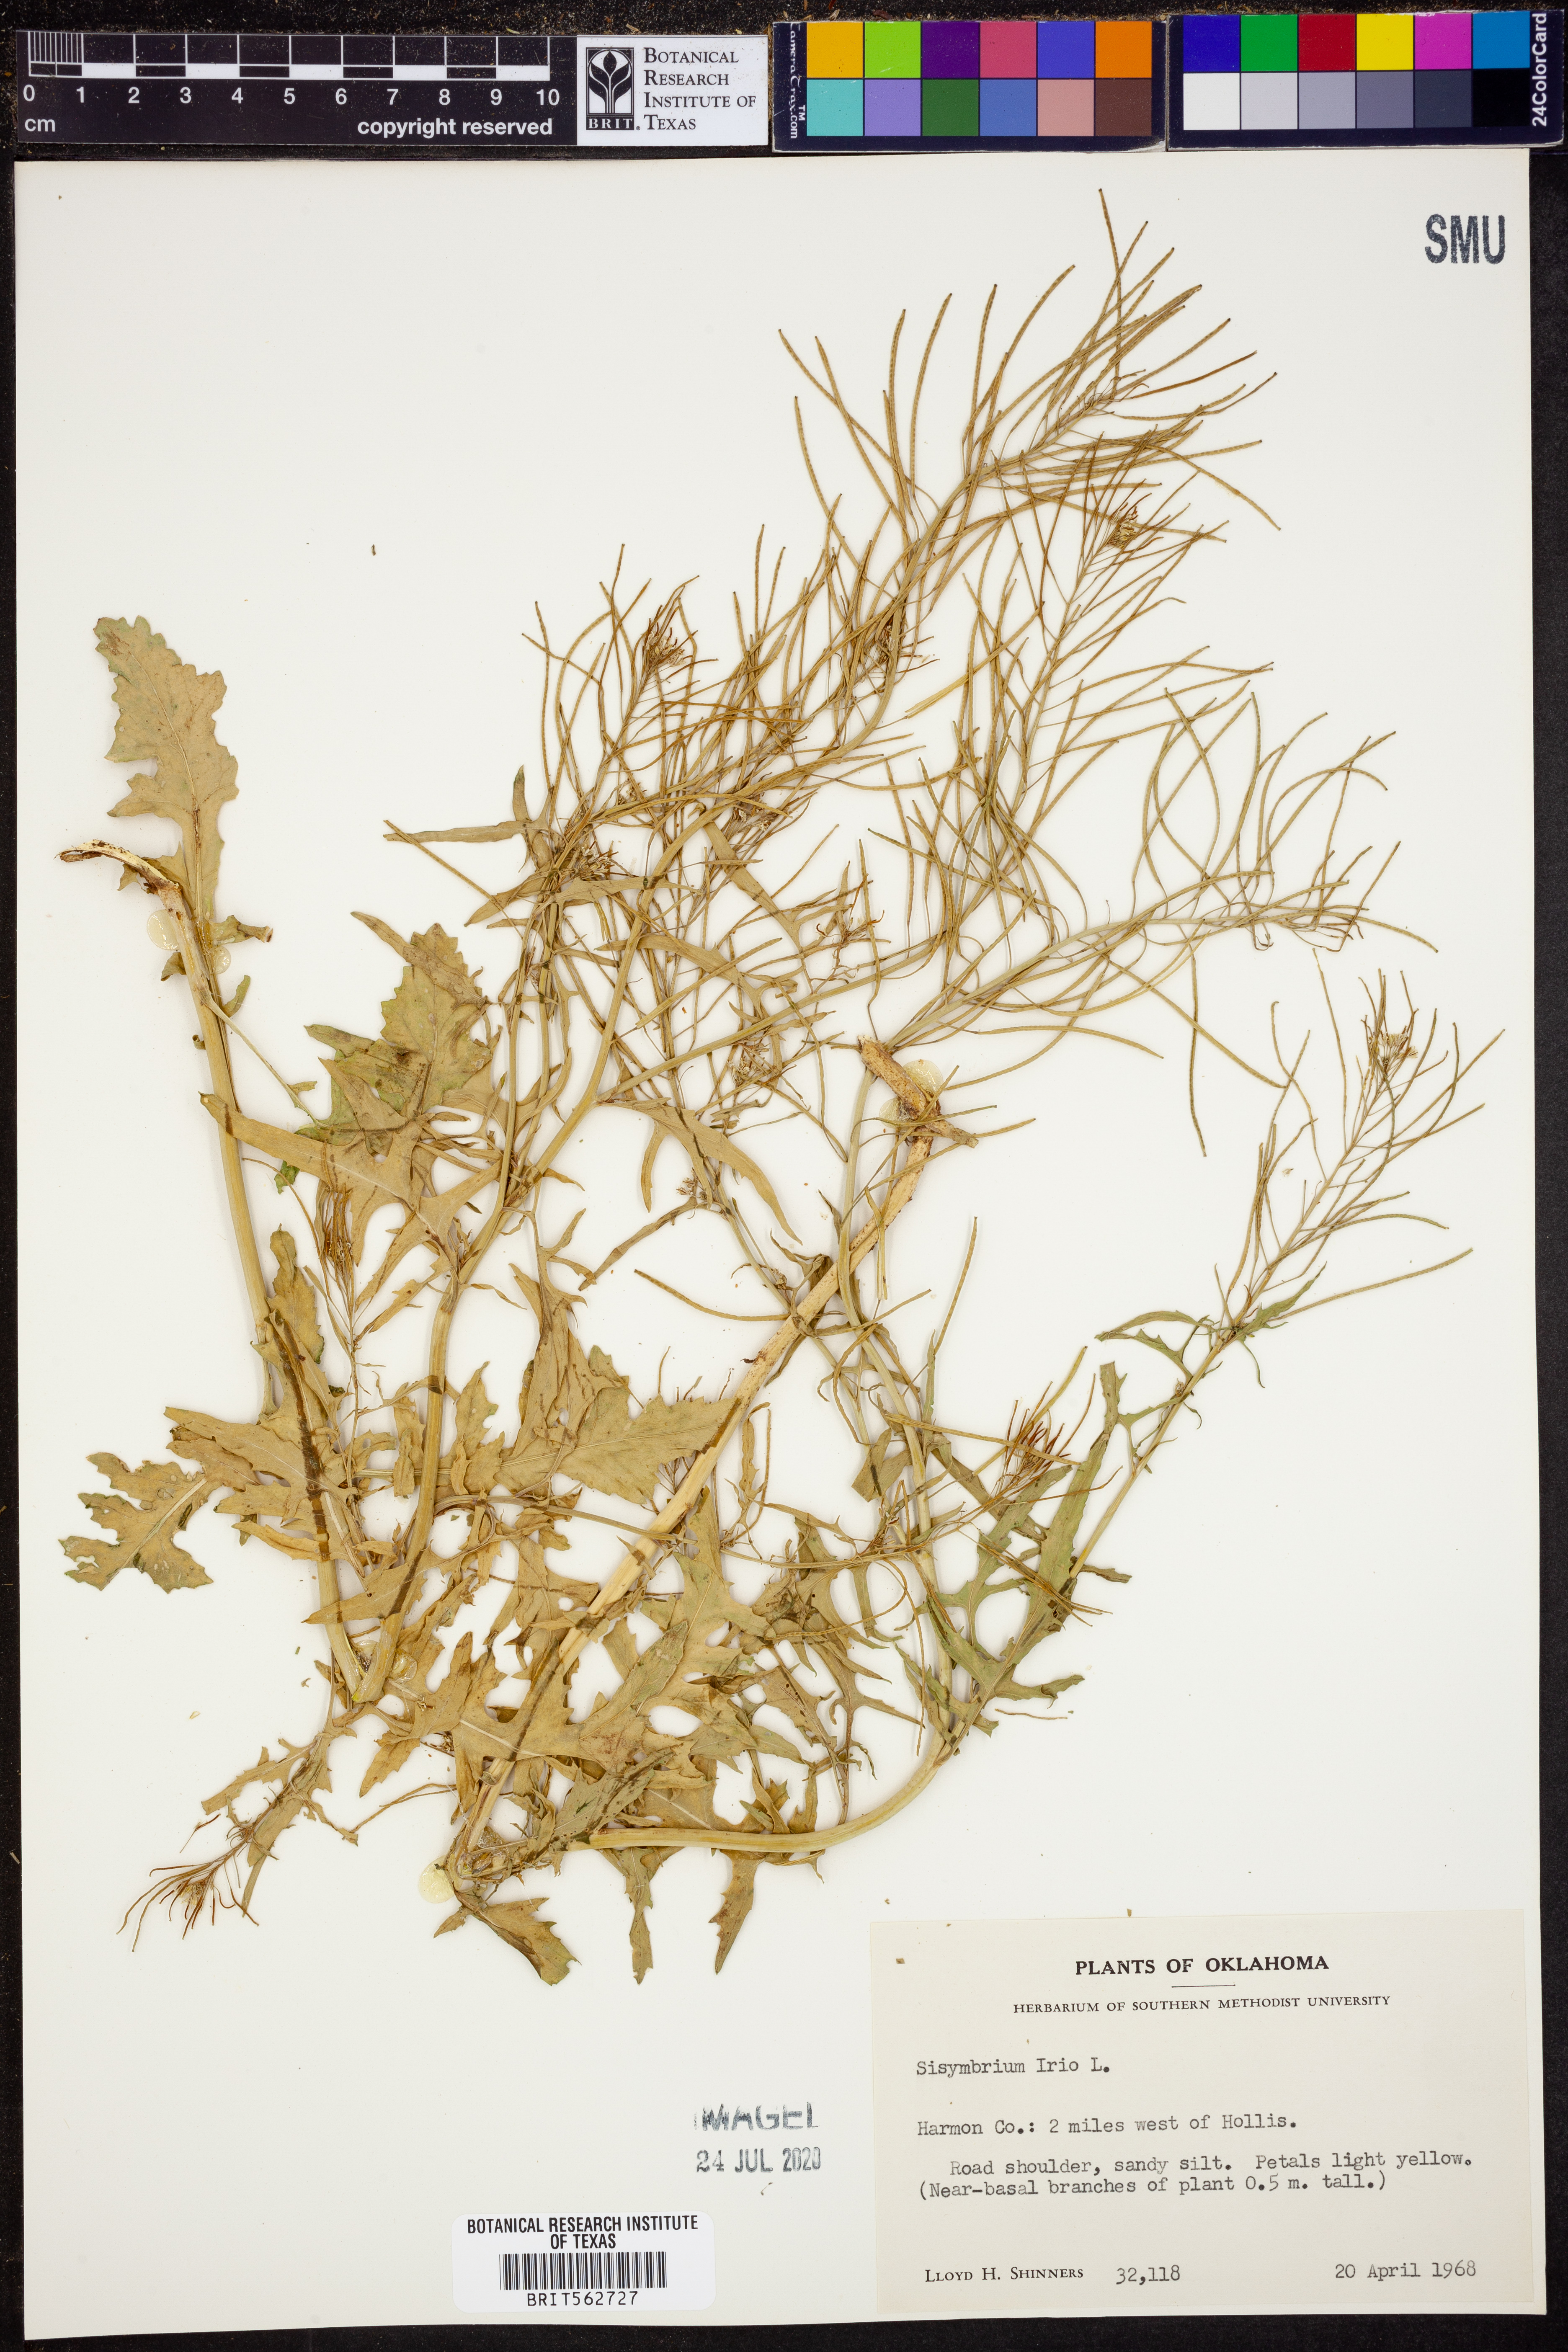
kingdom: Plantae
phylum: Tracheophyta
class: Magnoliopsida
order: Brassicales
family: Brassicaceae
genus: Sisymbrium
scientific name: Sisymbrium irio
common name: London rocket
